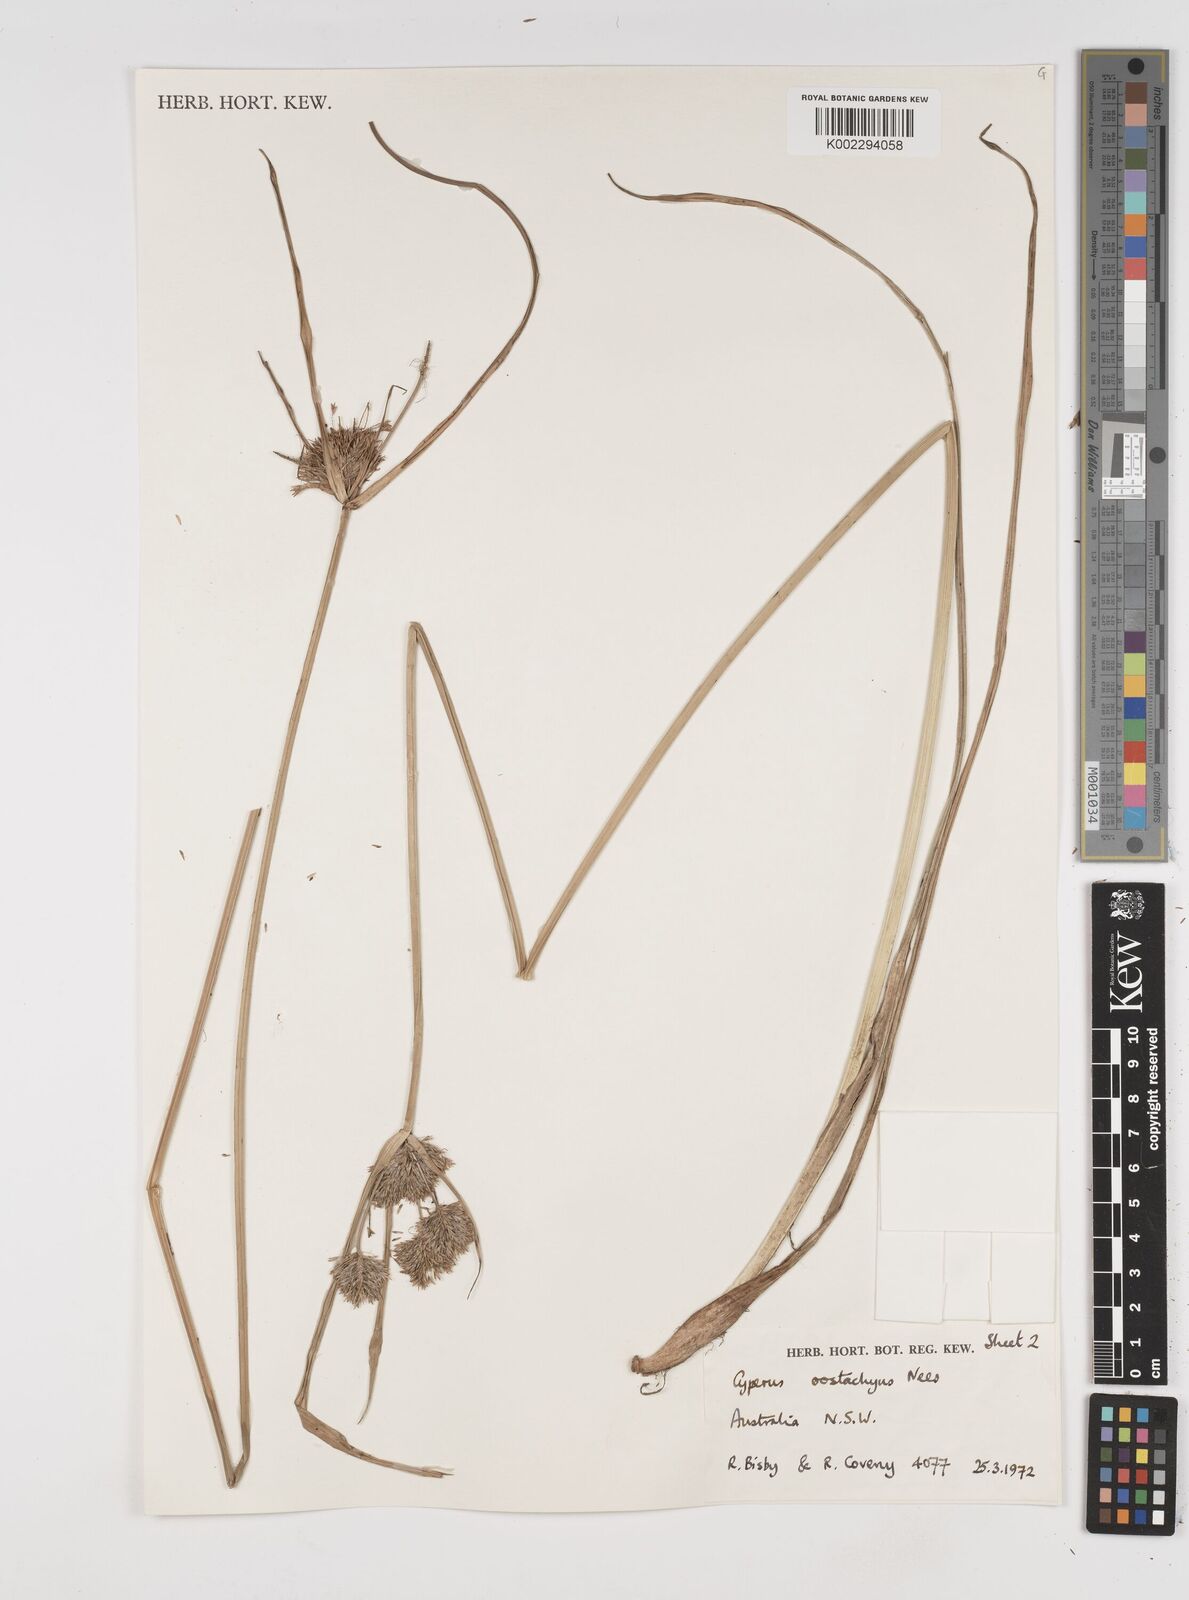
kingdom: Plantae
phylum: Tracheophyta
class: Liliopsida
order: Poales
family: Cyperaceae
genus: Cyperus
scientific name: Cyperus rigens
